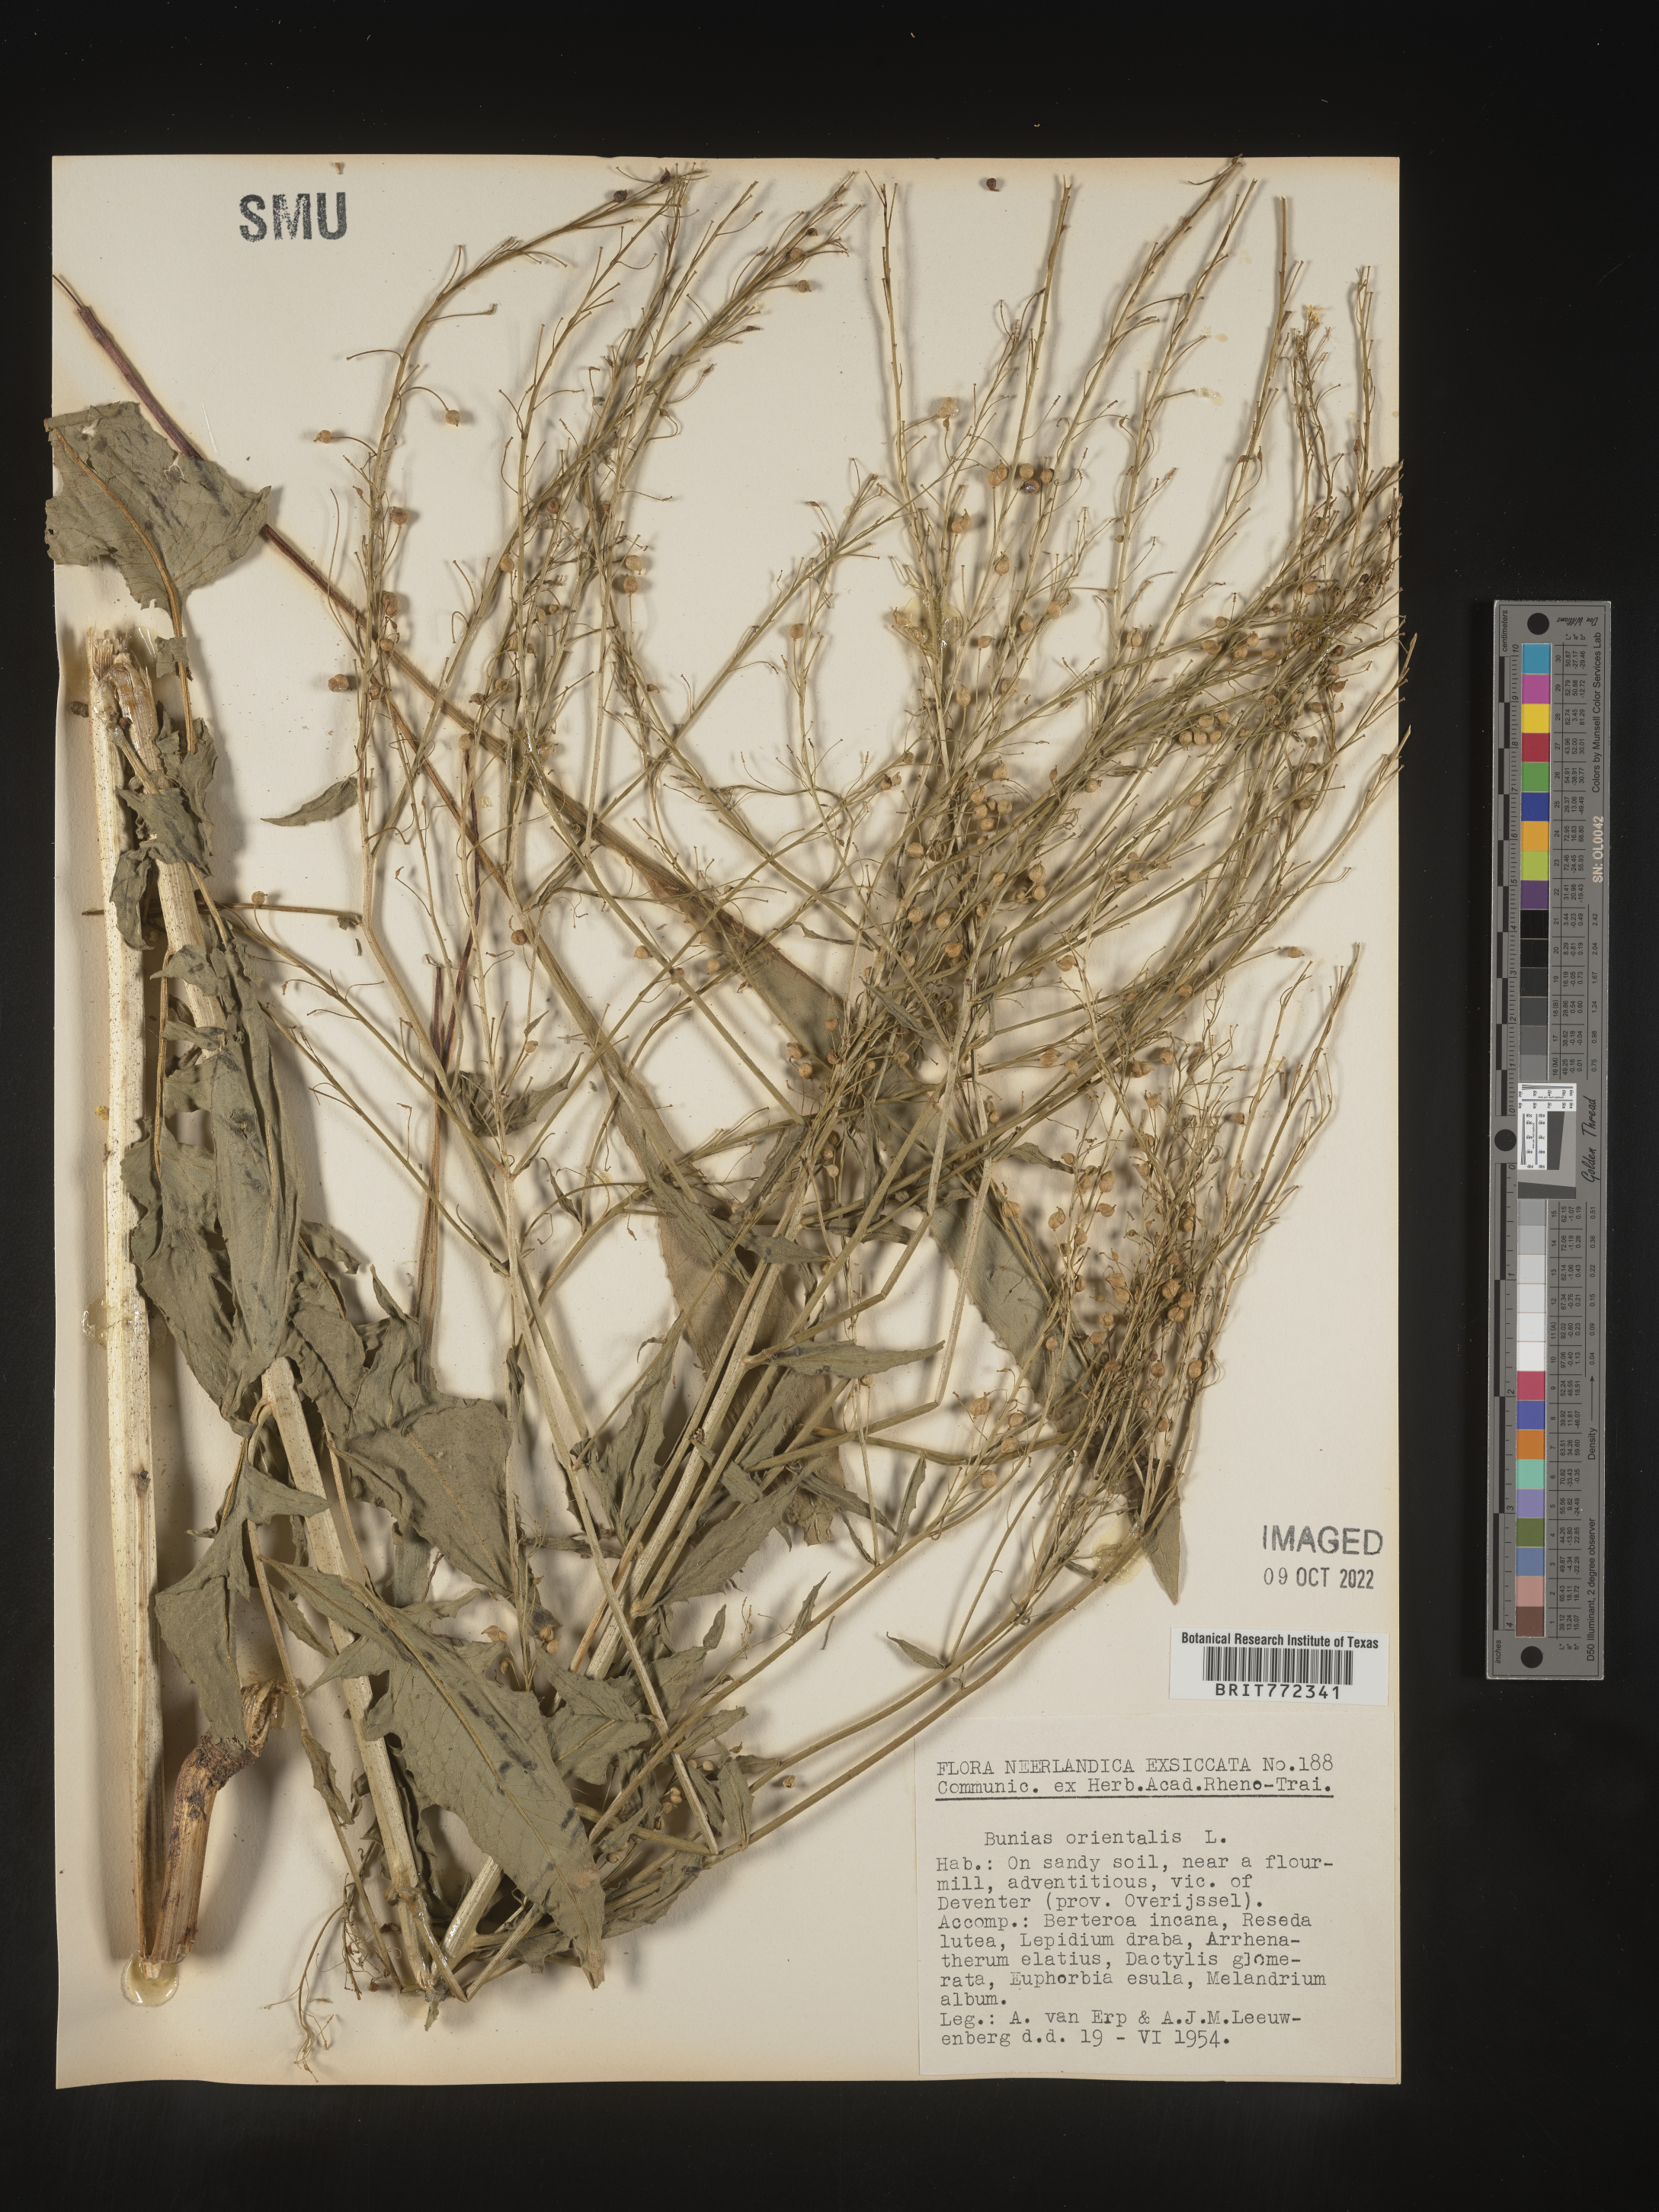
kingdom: Plantae
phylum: Tracheophyta
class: Magnoliopsida
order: Brassicales
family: Brassicaceae
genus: Bunias
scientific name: Bunias
